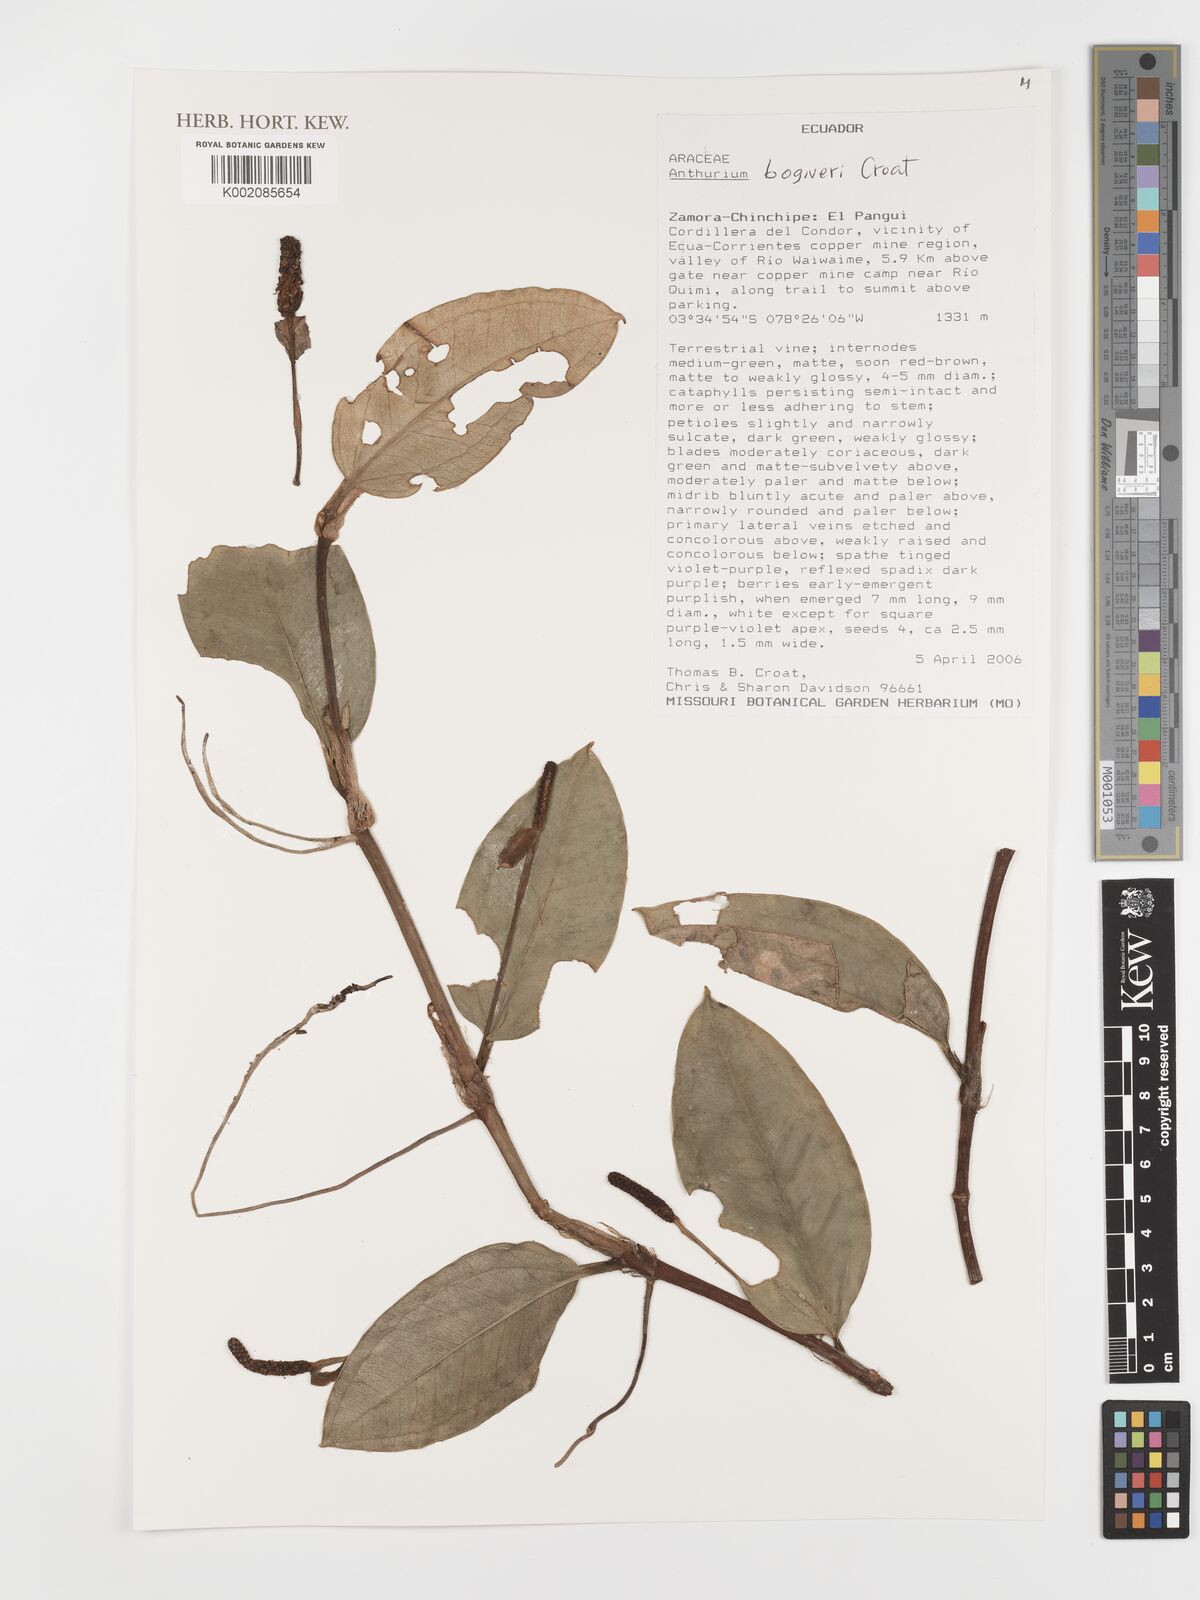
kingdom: Plantae
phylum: Tracheophyta
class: Liliopsida
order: Alismatales
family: Araceae
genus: Anthurium
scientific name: Anthurium bogneri
